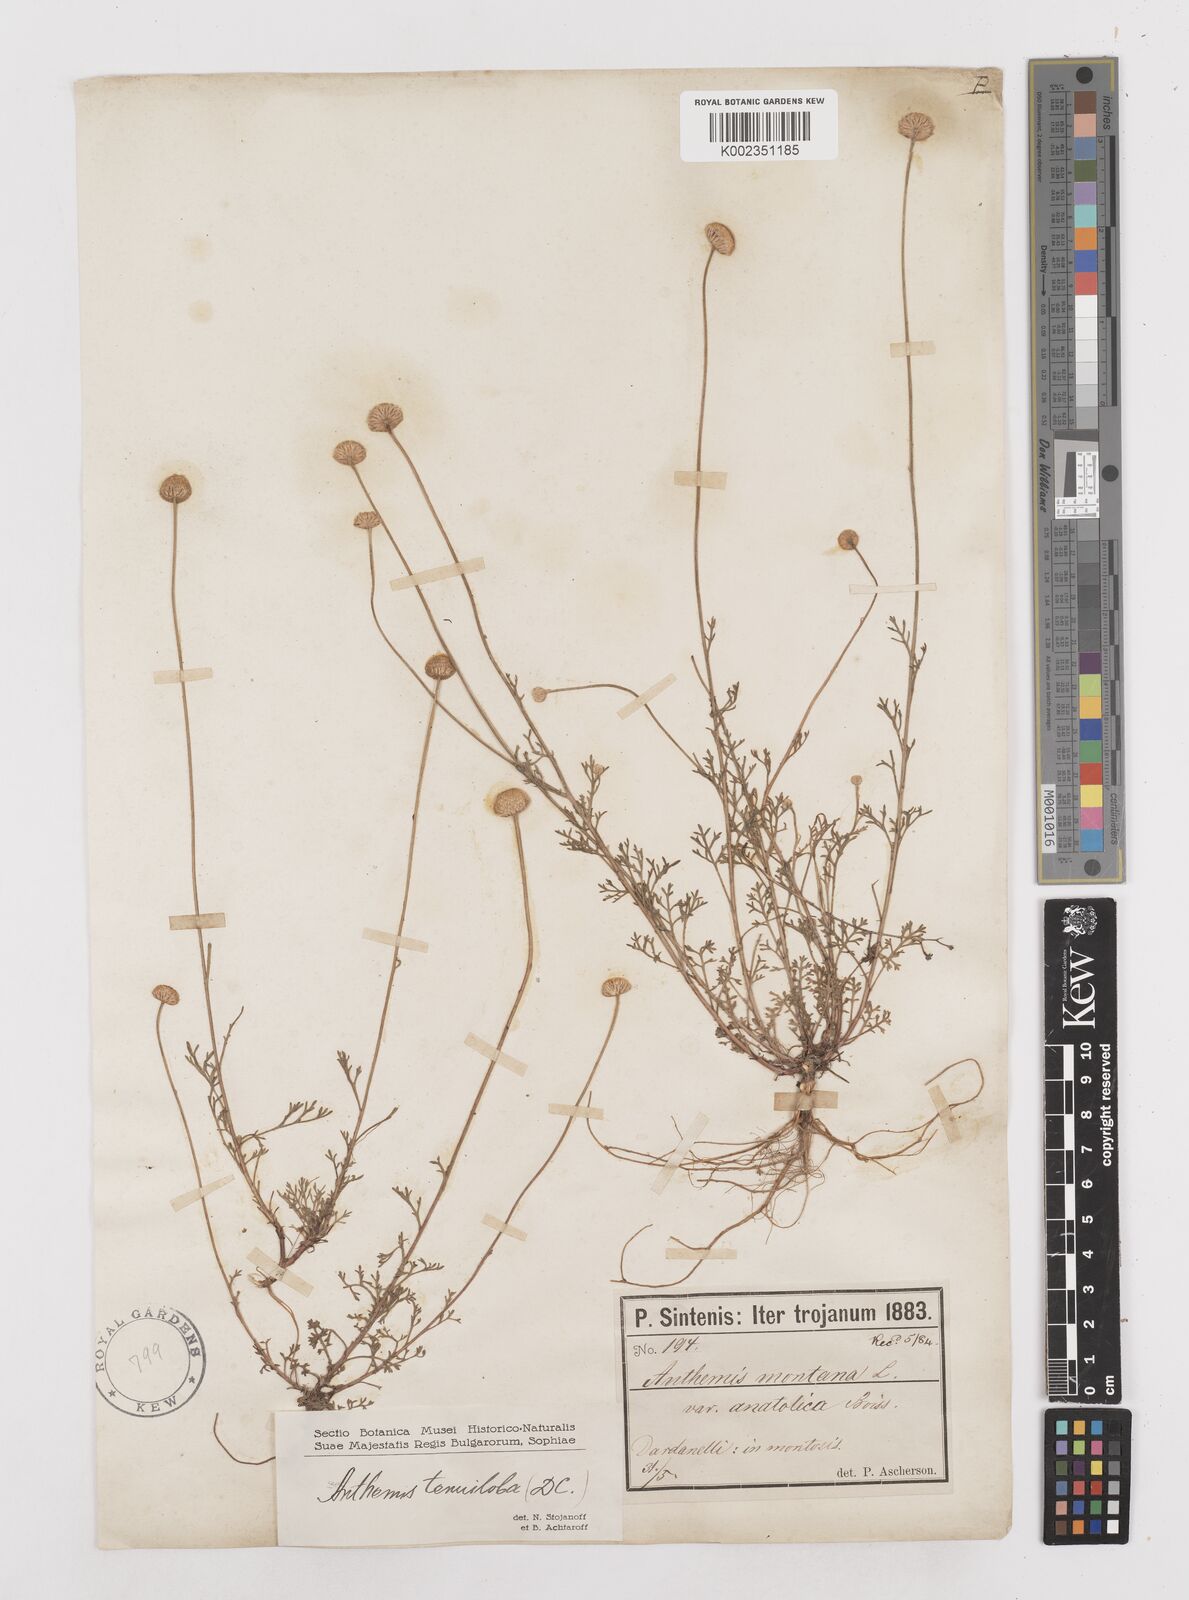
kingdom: Plantae
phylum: Tracheophyta
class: Magnoliopsida
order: Asterales
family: Asteraceae
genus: Anthemis
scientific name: Anthemis cretica
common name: Mountain dog-daisy
